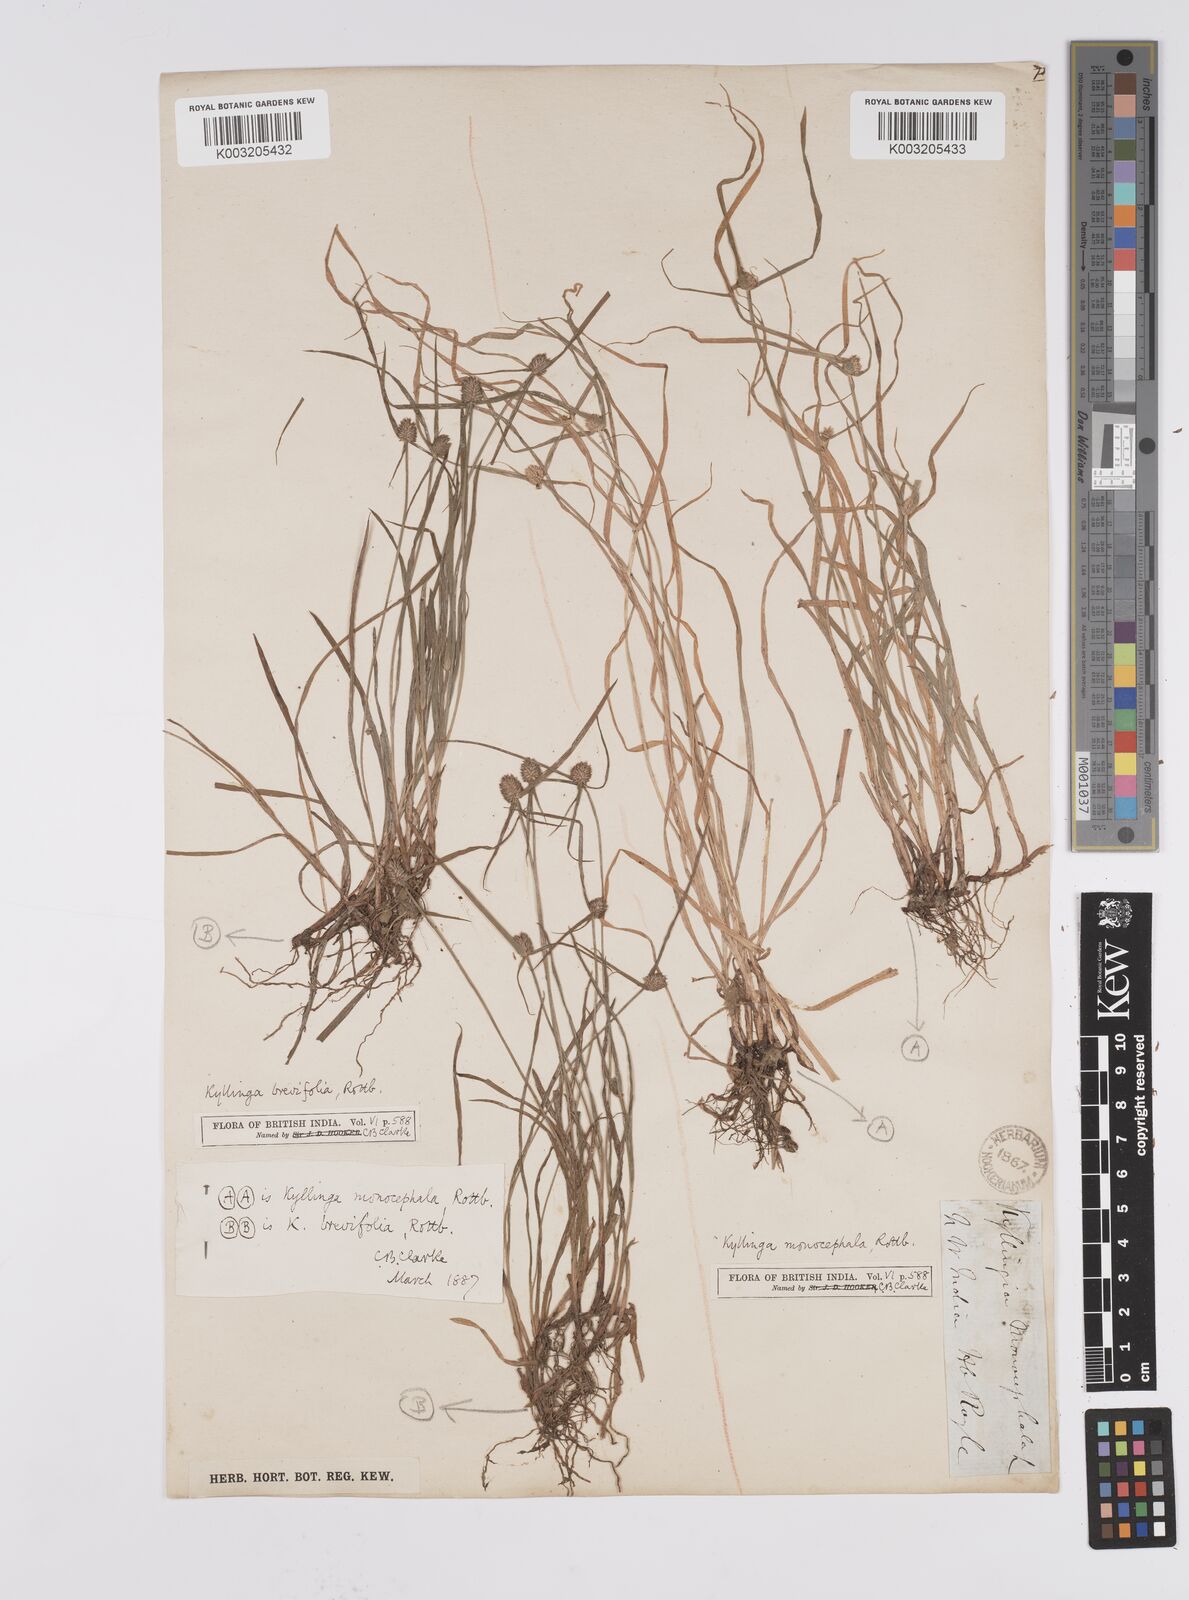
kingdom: Plantae
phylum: Tracheophyta
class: Liliopsida
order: Poales
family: Cyperaceae
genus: Cyperus
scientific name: Cyperus nemoralis
